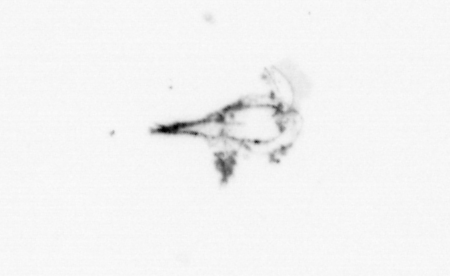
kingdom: Animalia
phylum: Arthropoda
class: Maxillopoda
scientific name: Maxillopoda
